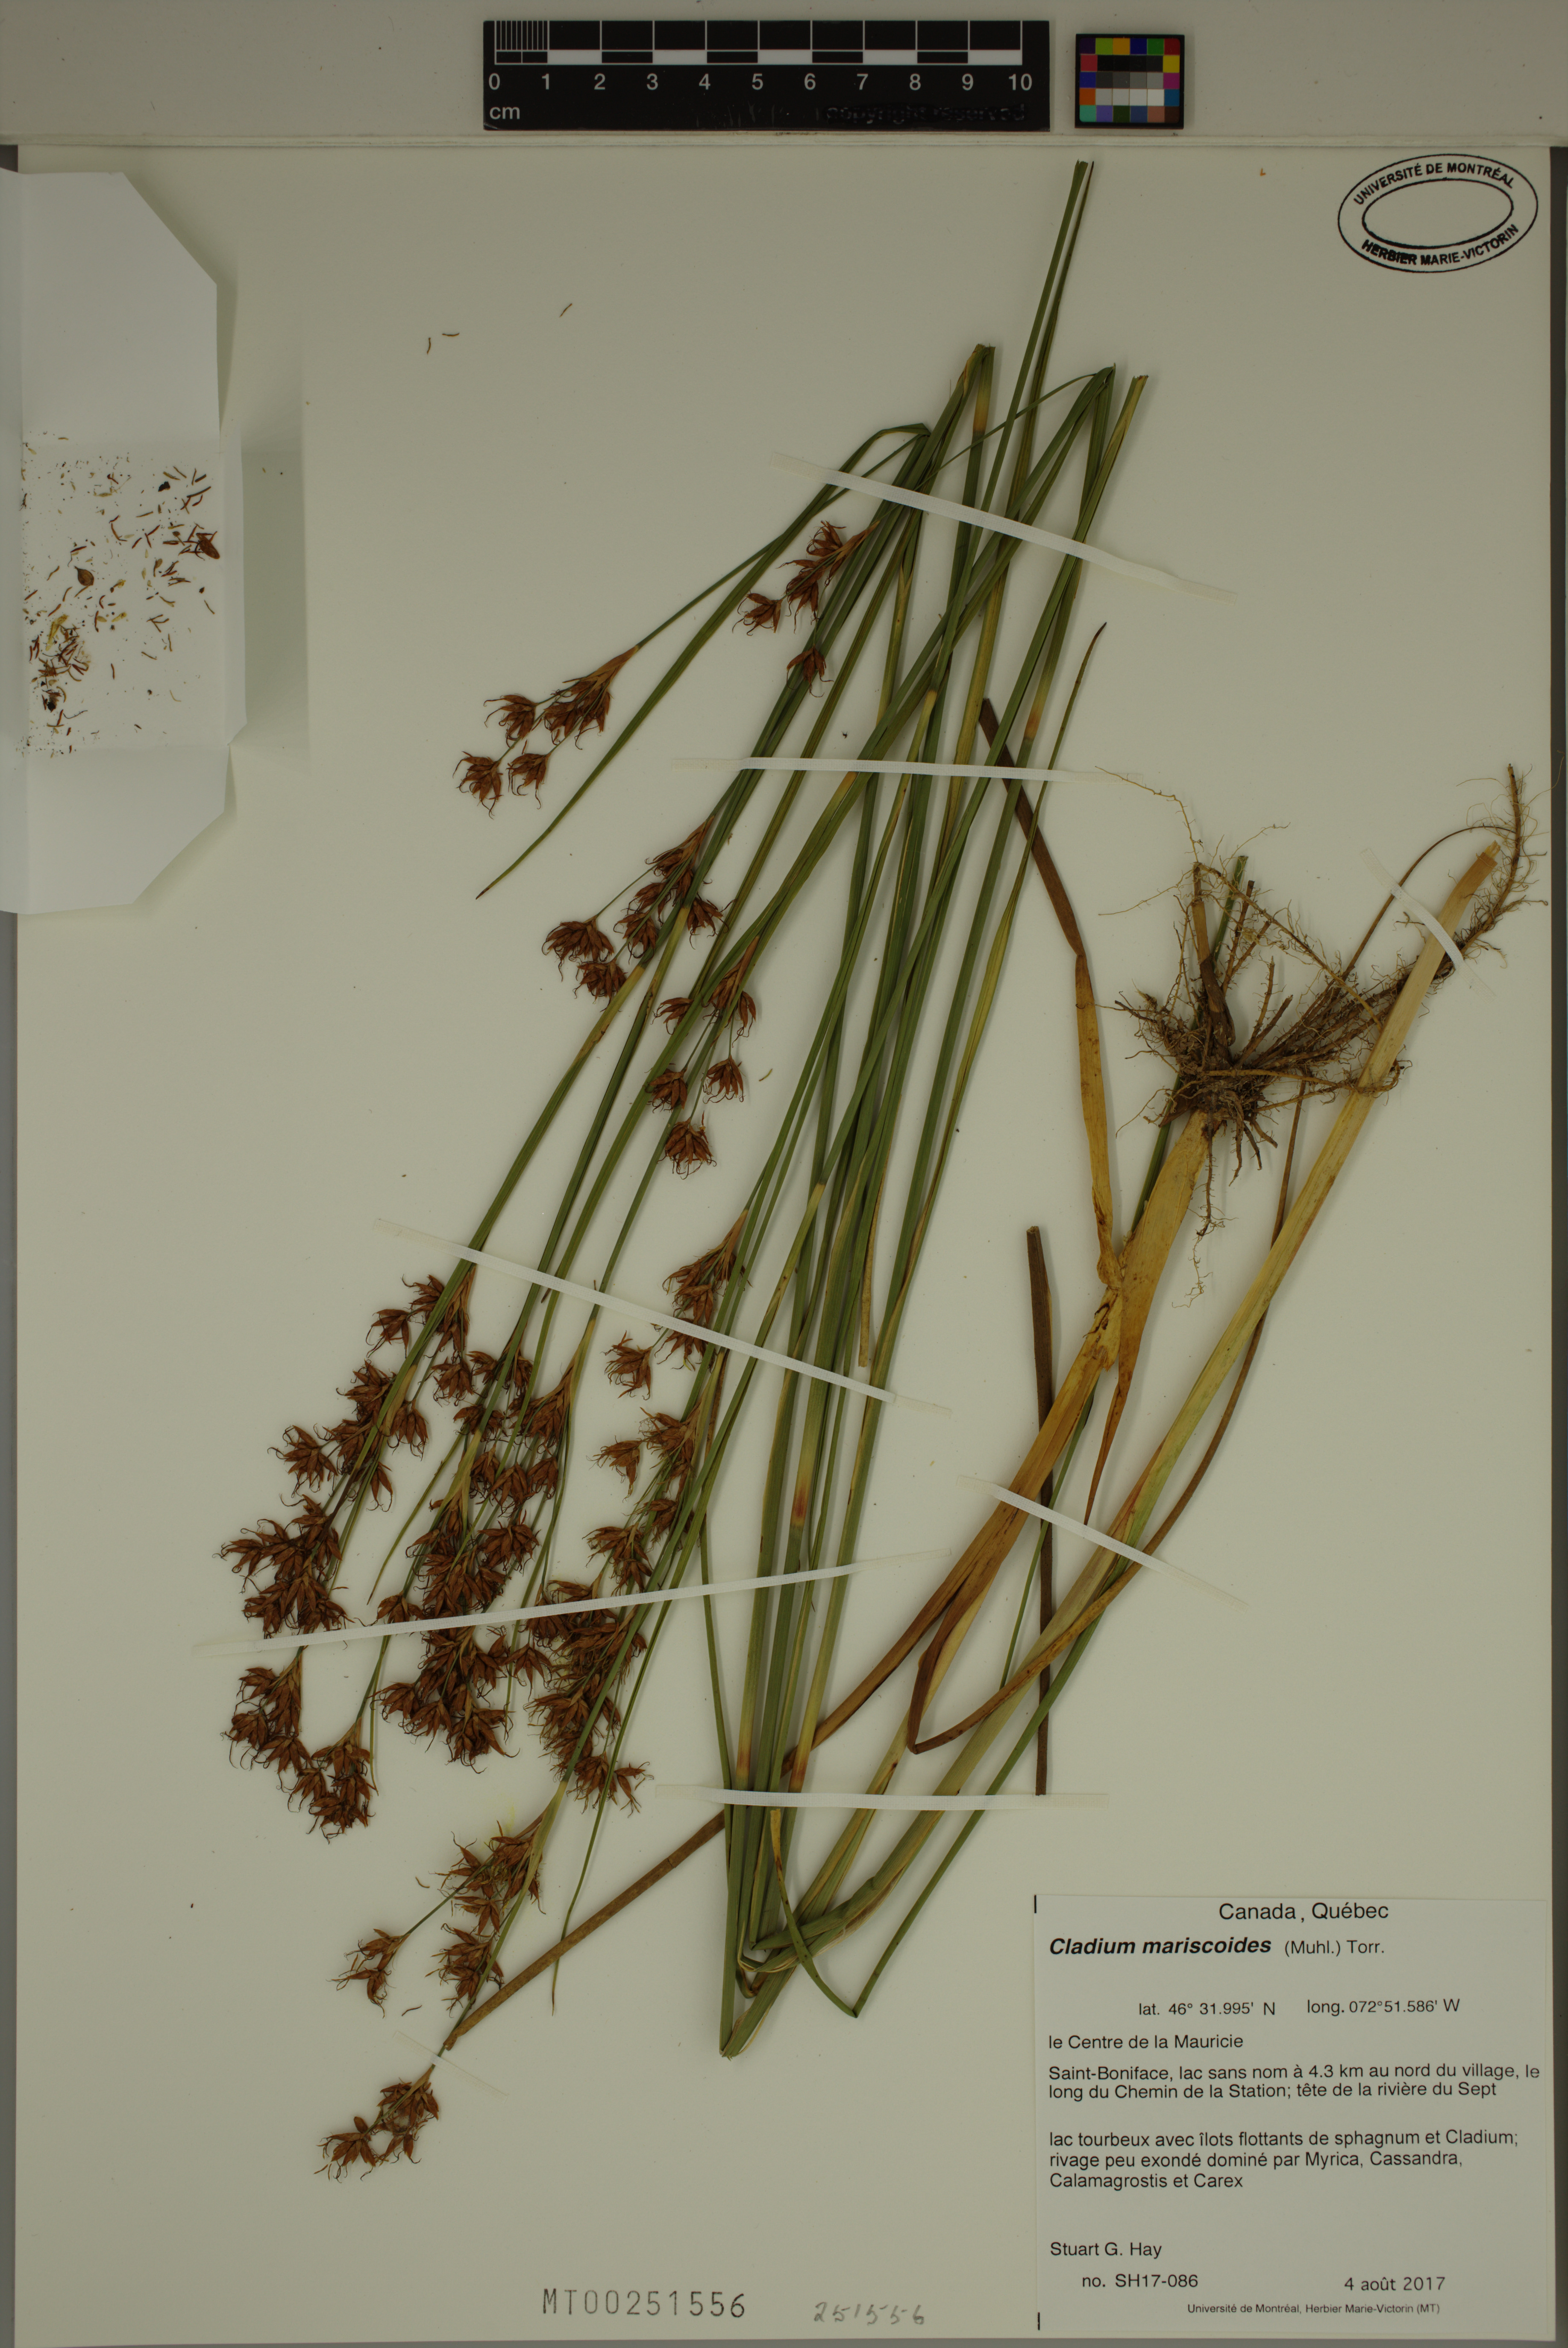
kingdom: Plantae
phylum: Tracheophyta
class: Liliopsida
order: Poales
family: Cyperaceae
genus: Cladium
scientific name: Cladium mariscoides
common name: Smooth sawgrass
